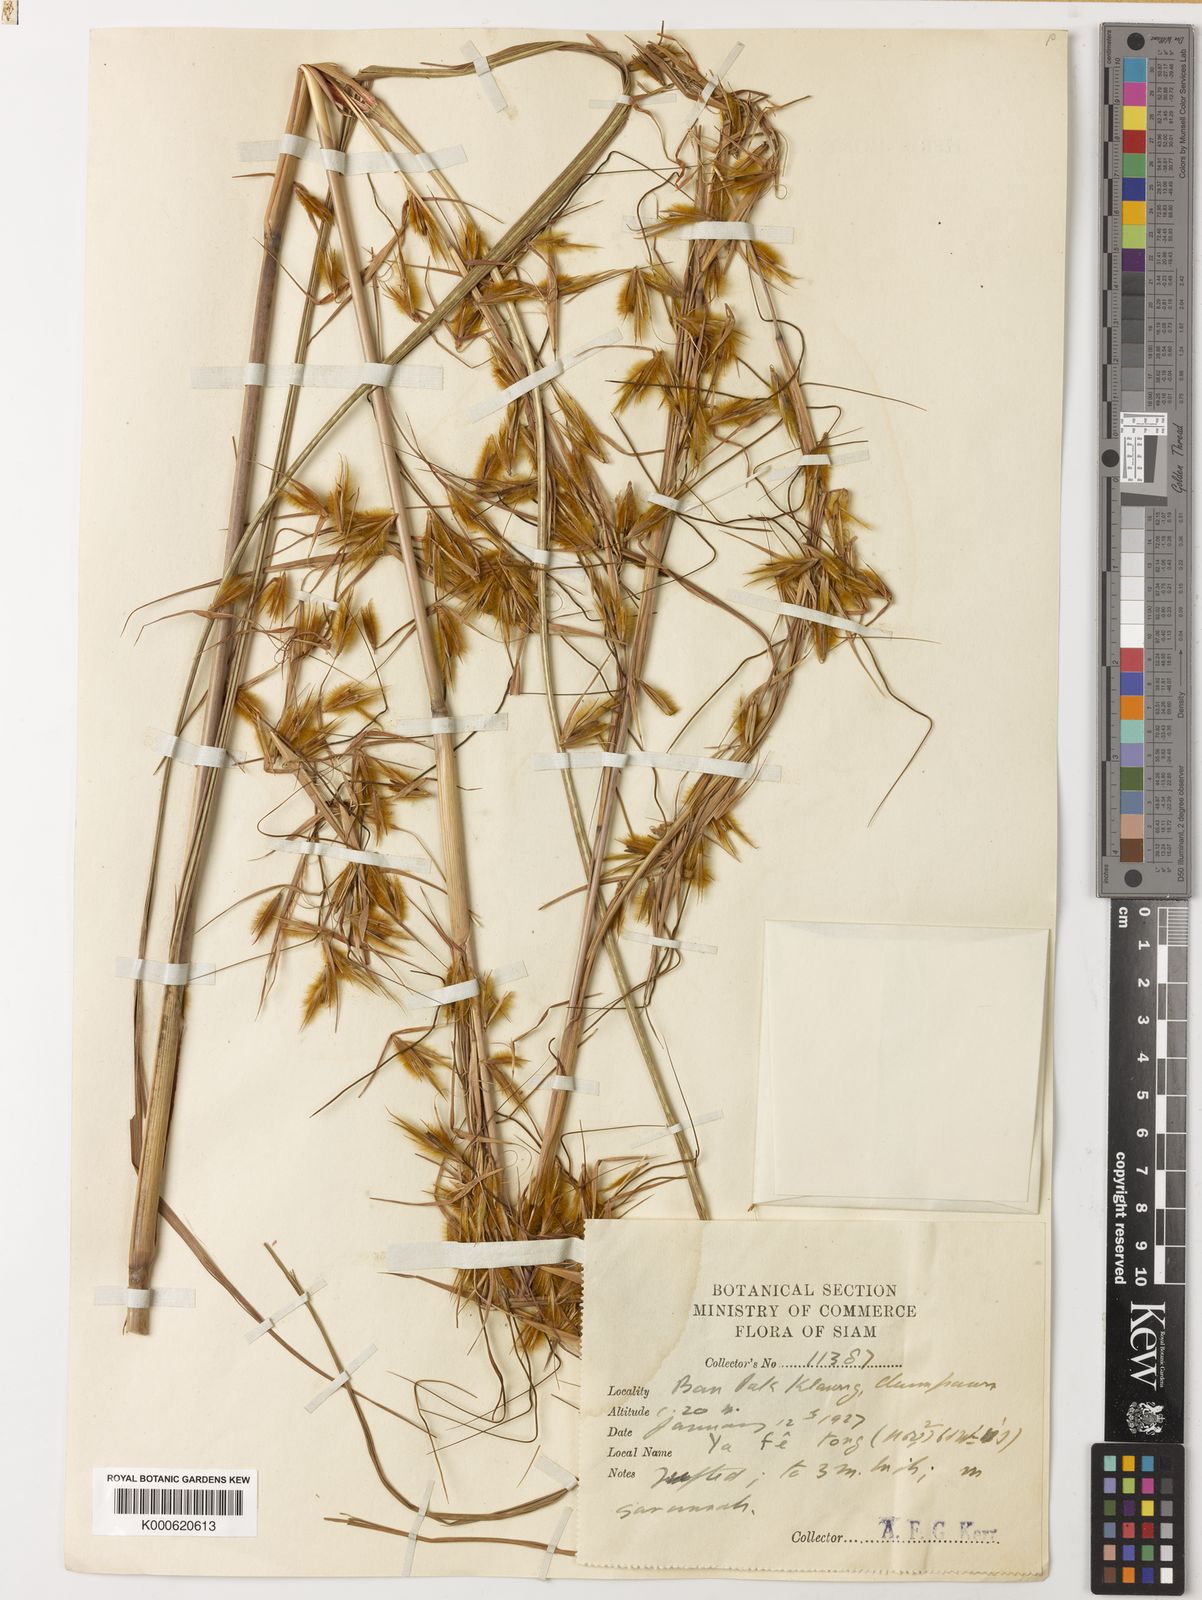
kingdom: Plantae
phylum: Tracheophyta
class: Liliopsida
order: Poales
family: Poaceae
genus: Themeda
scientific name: Themeda arundinacea
